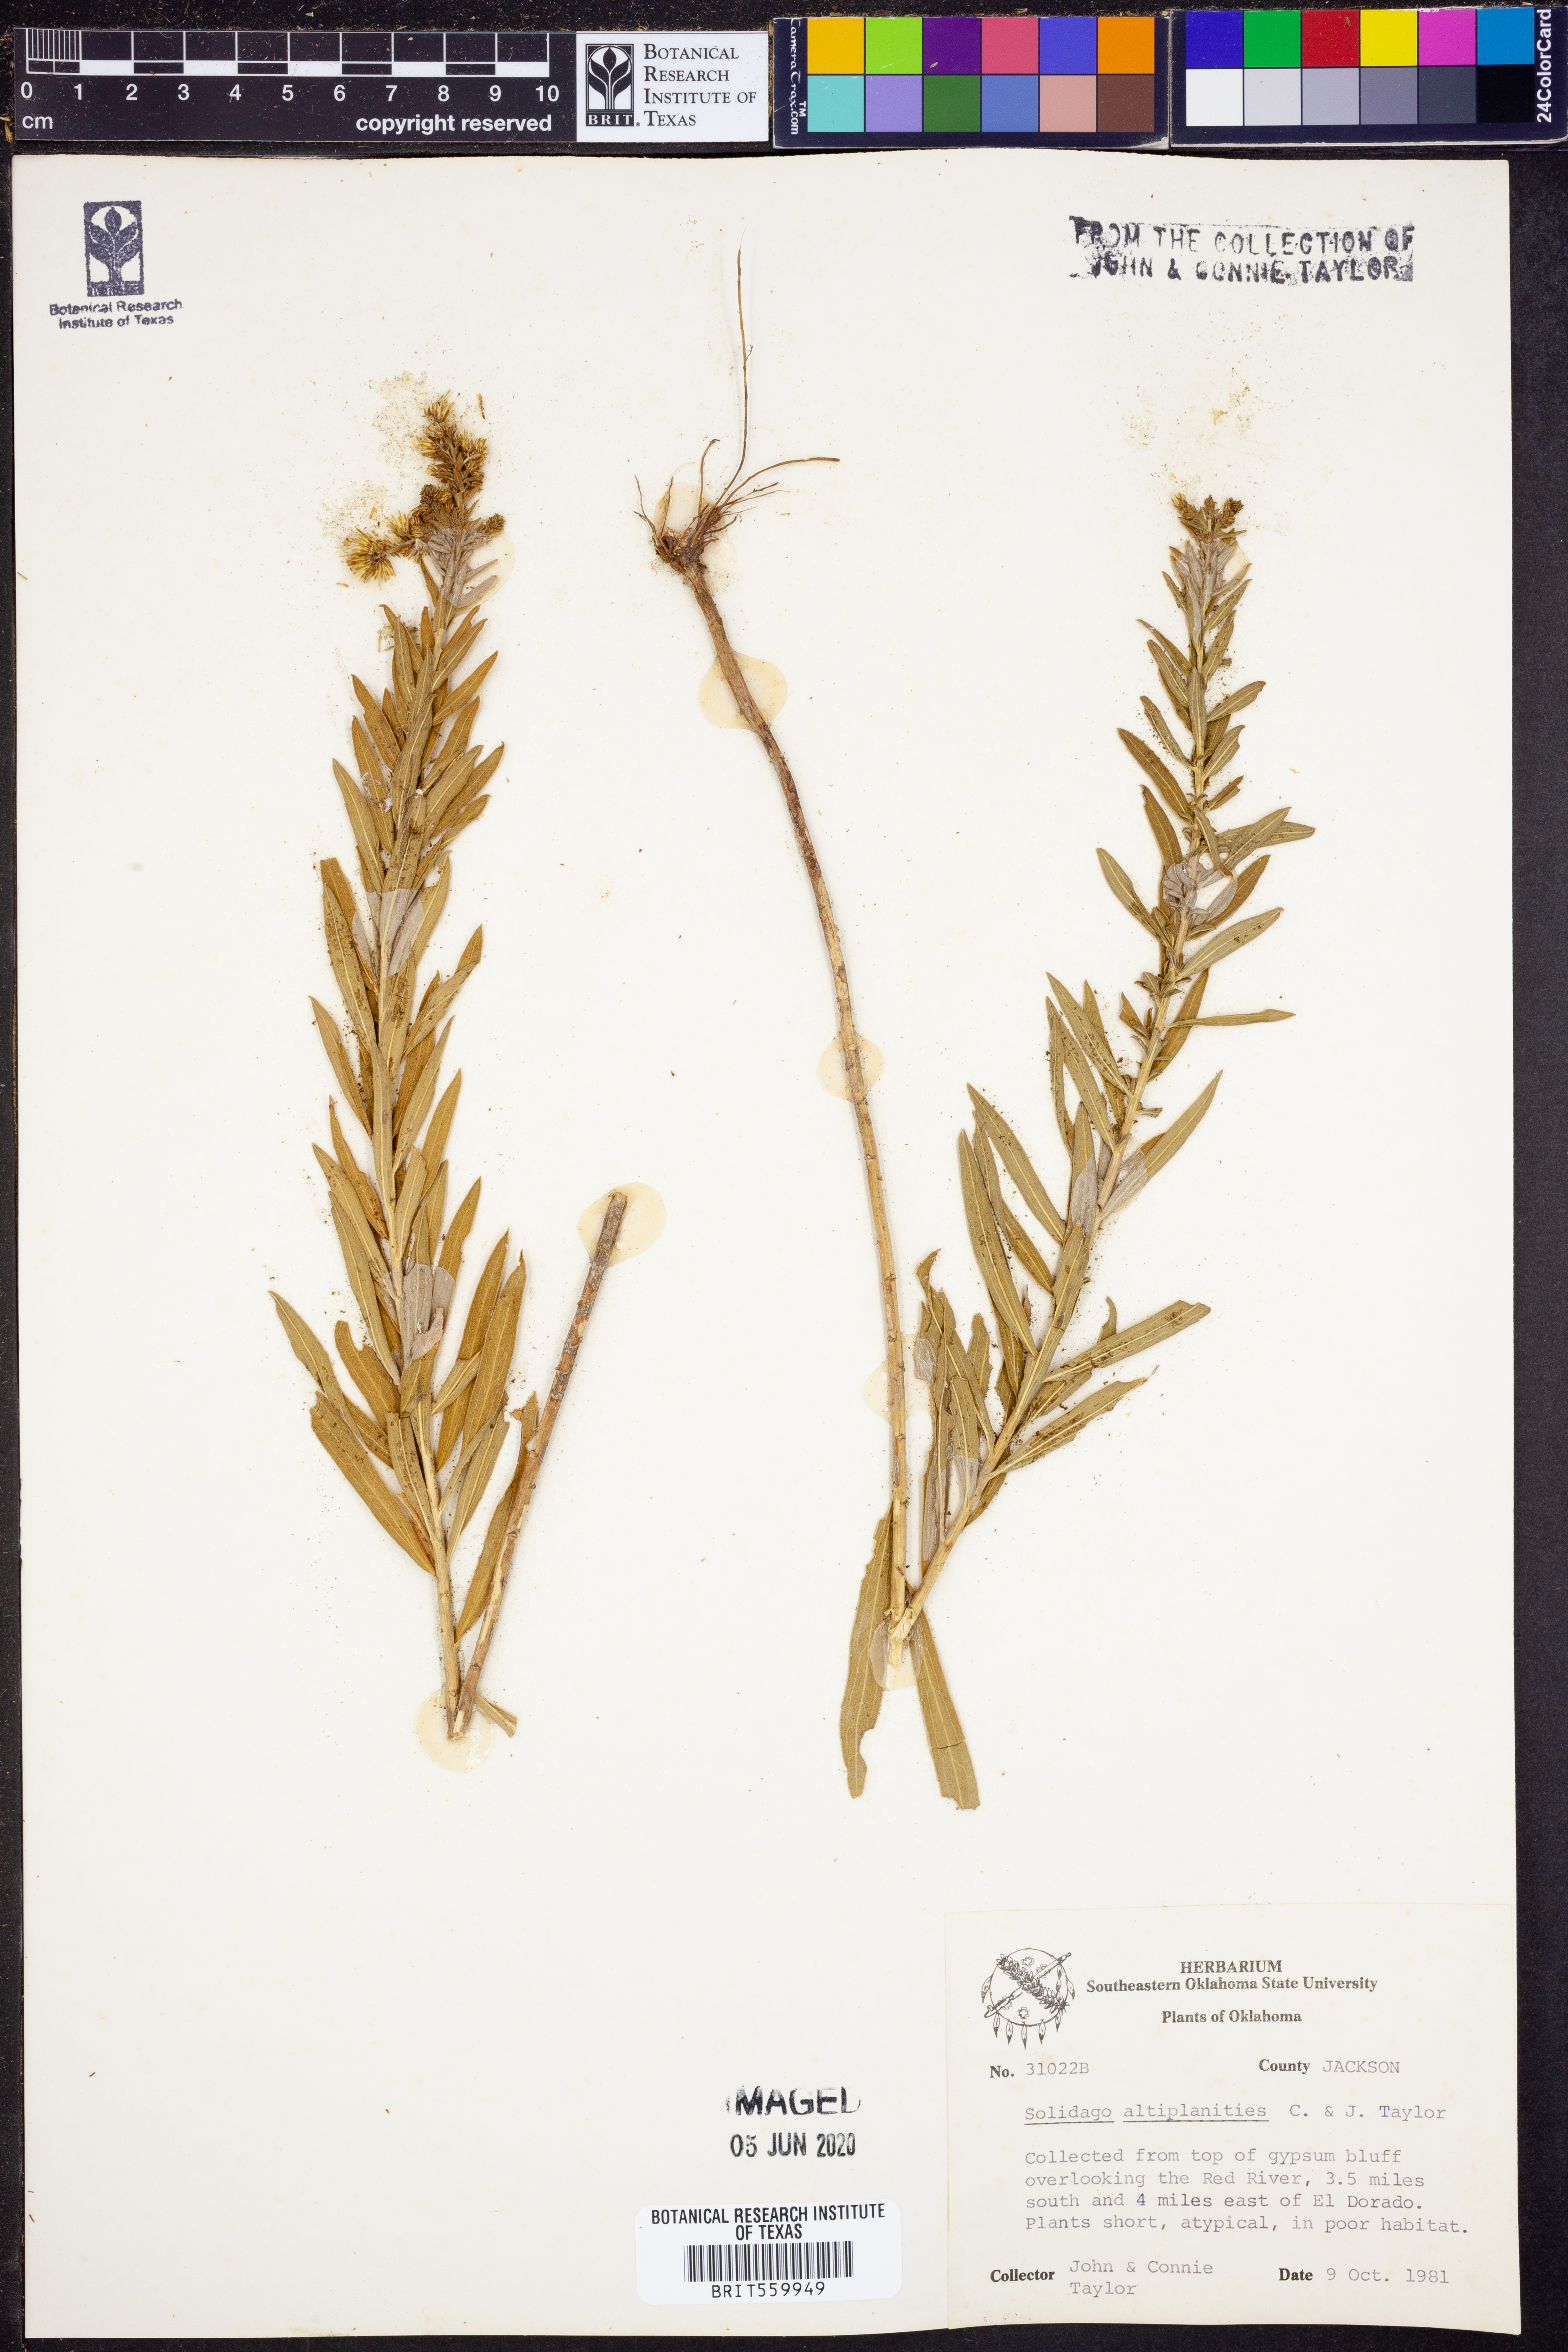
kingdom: Plantae
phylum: Tracheophyta
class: Magnoliopsida
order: Asterales
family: Asteraceae
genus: Solidago
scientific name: Solidago altiplanities
